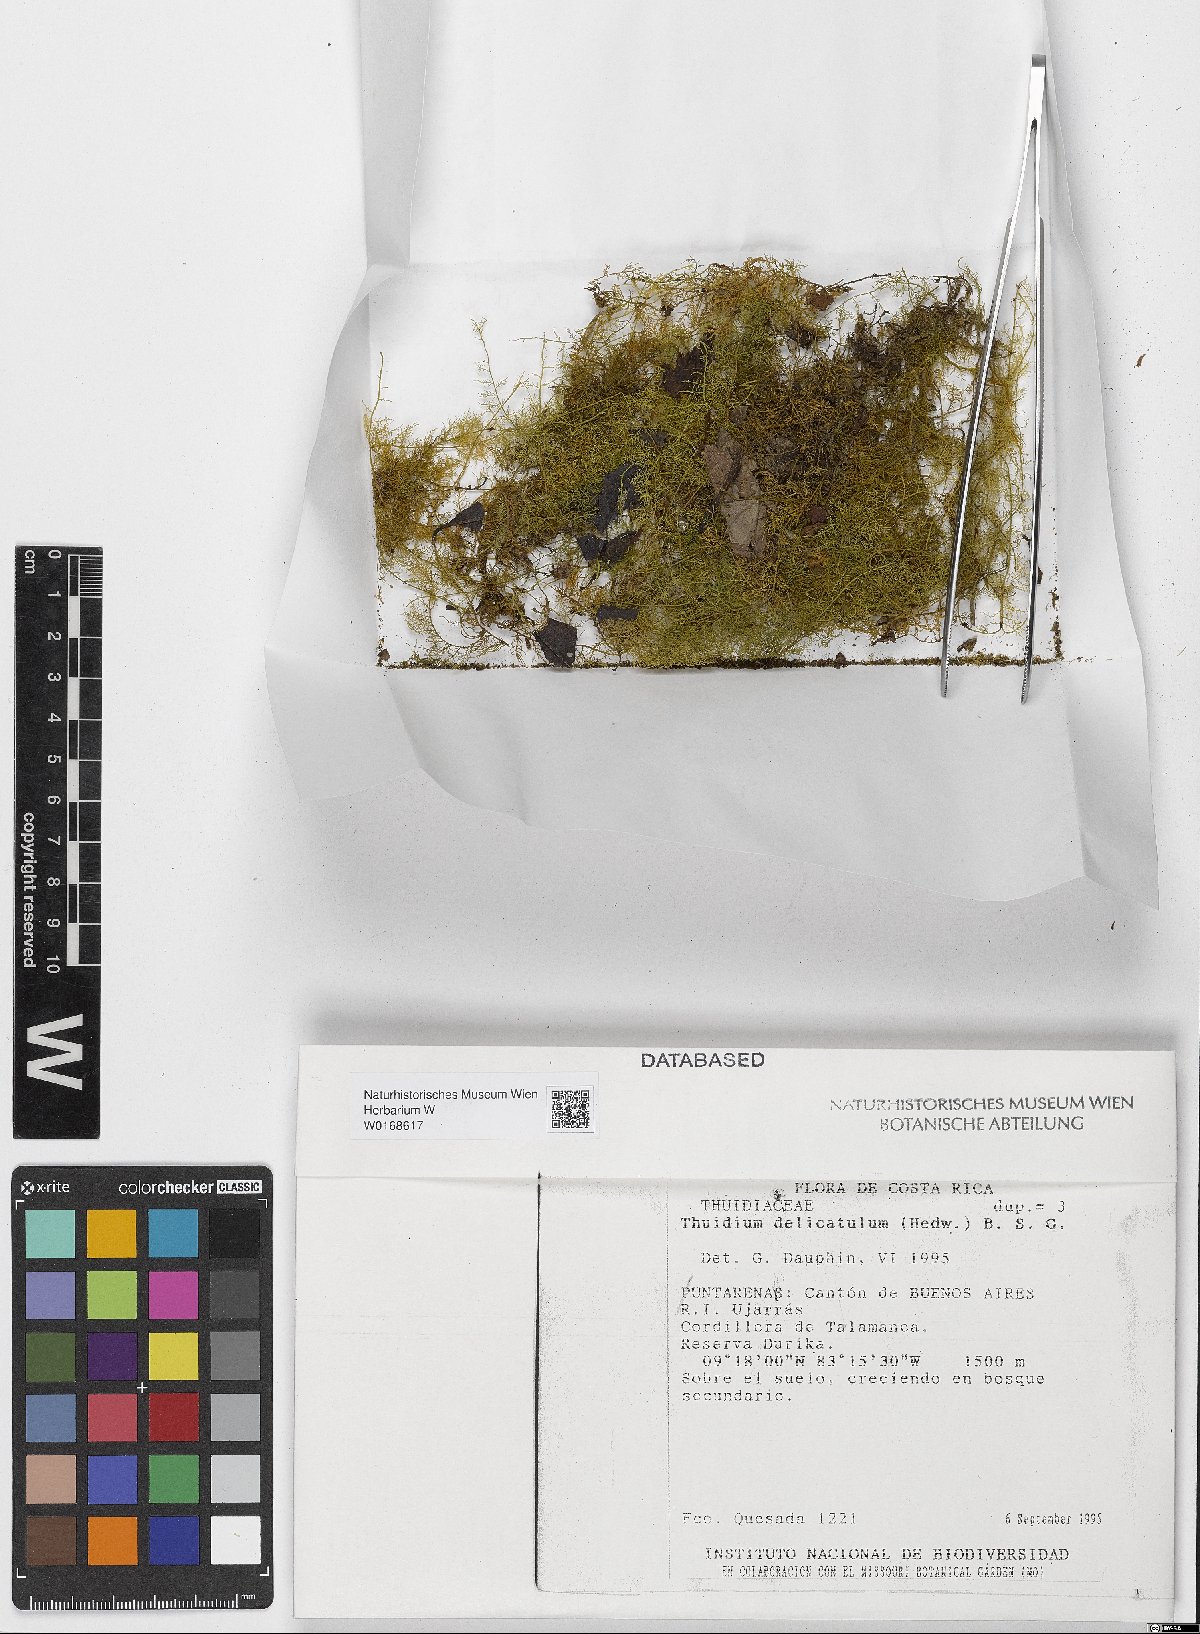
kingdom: Plantae
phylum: Bryophyta
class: Bryopsida
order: Hypnales
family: Thuidiaceae
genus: Thuidium
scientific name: Thuidium delicatulum
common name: Delicate fern moss
